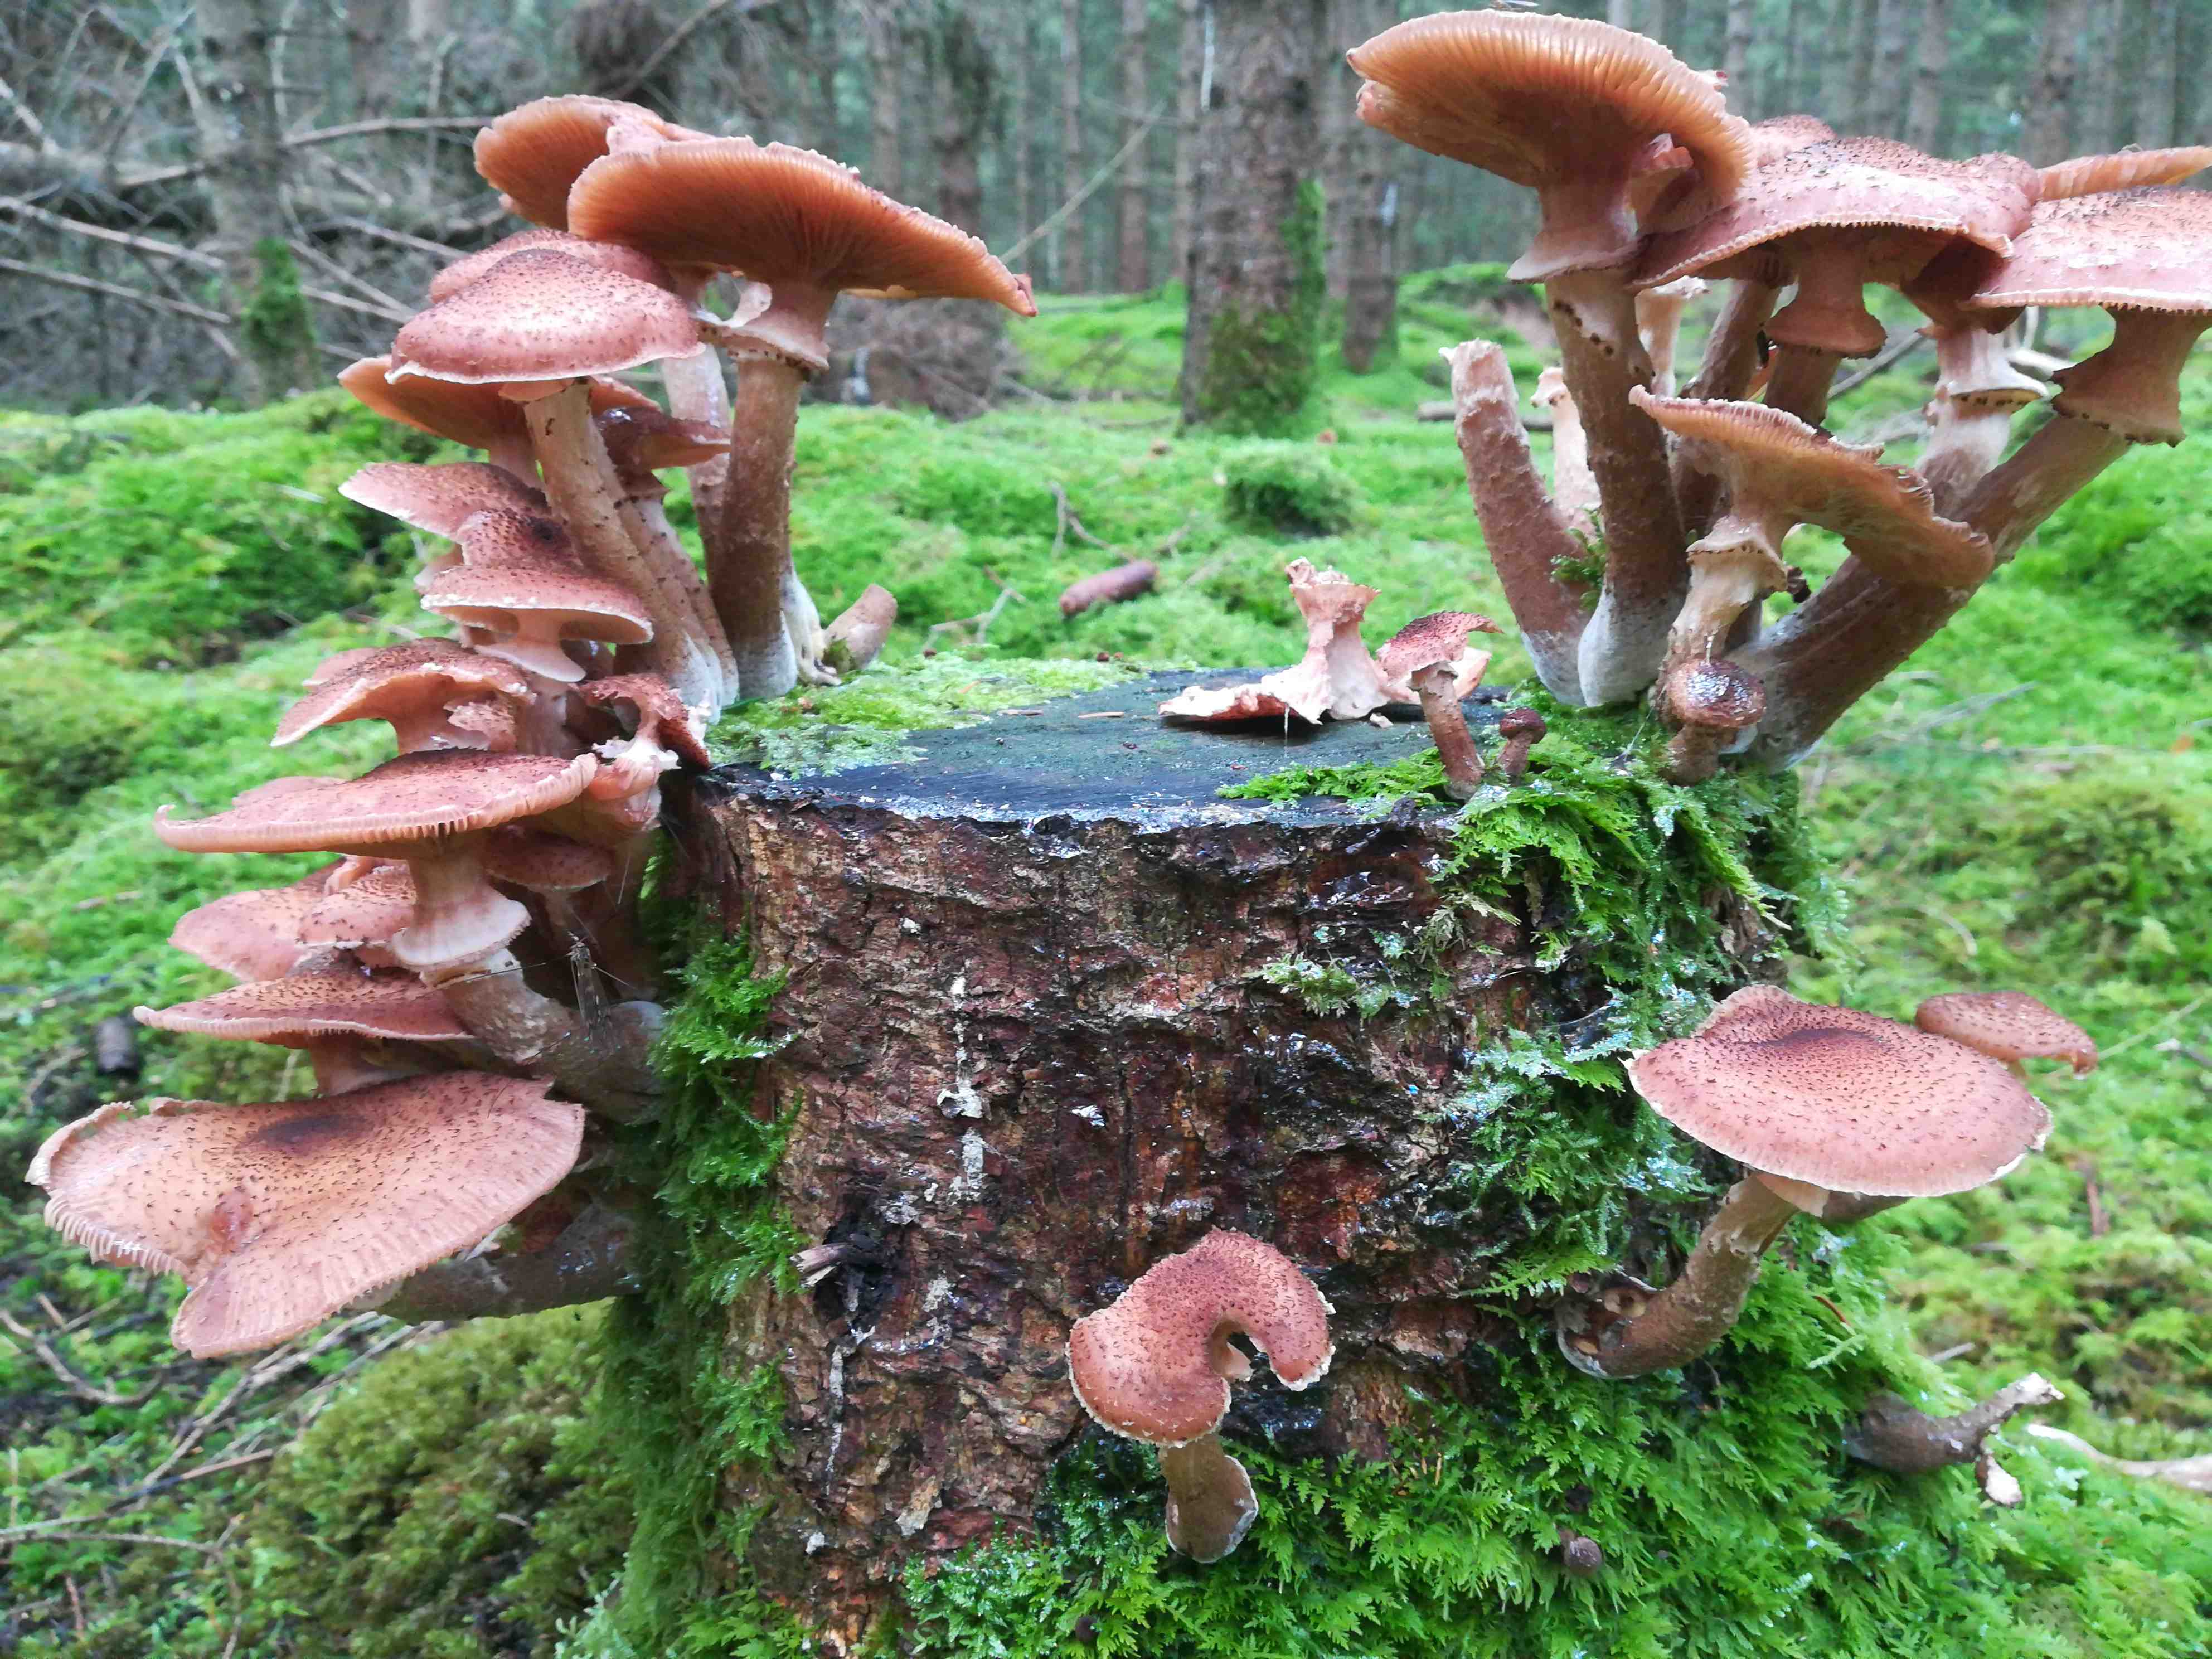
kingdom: Fungi
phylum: Basidiomycota
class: Agaricomycetes
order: Agaricales
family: Physalacriaceae
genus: Armillaria
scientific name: Armillaria ostoyae
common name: mørk honningsvamp
